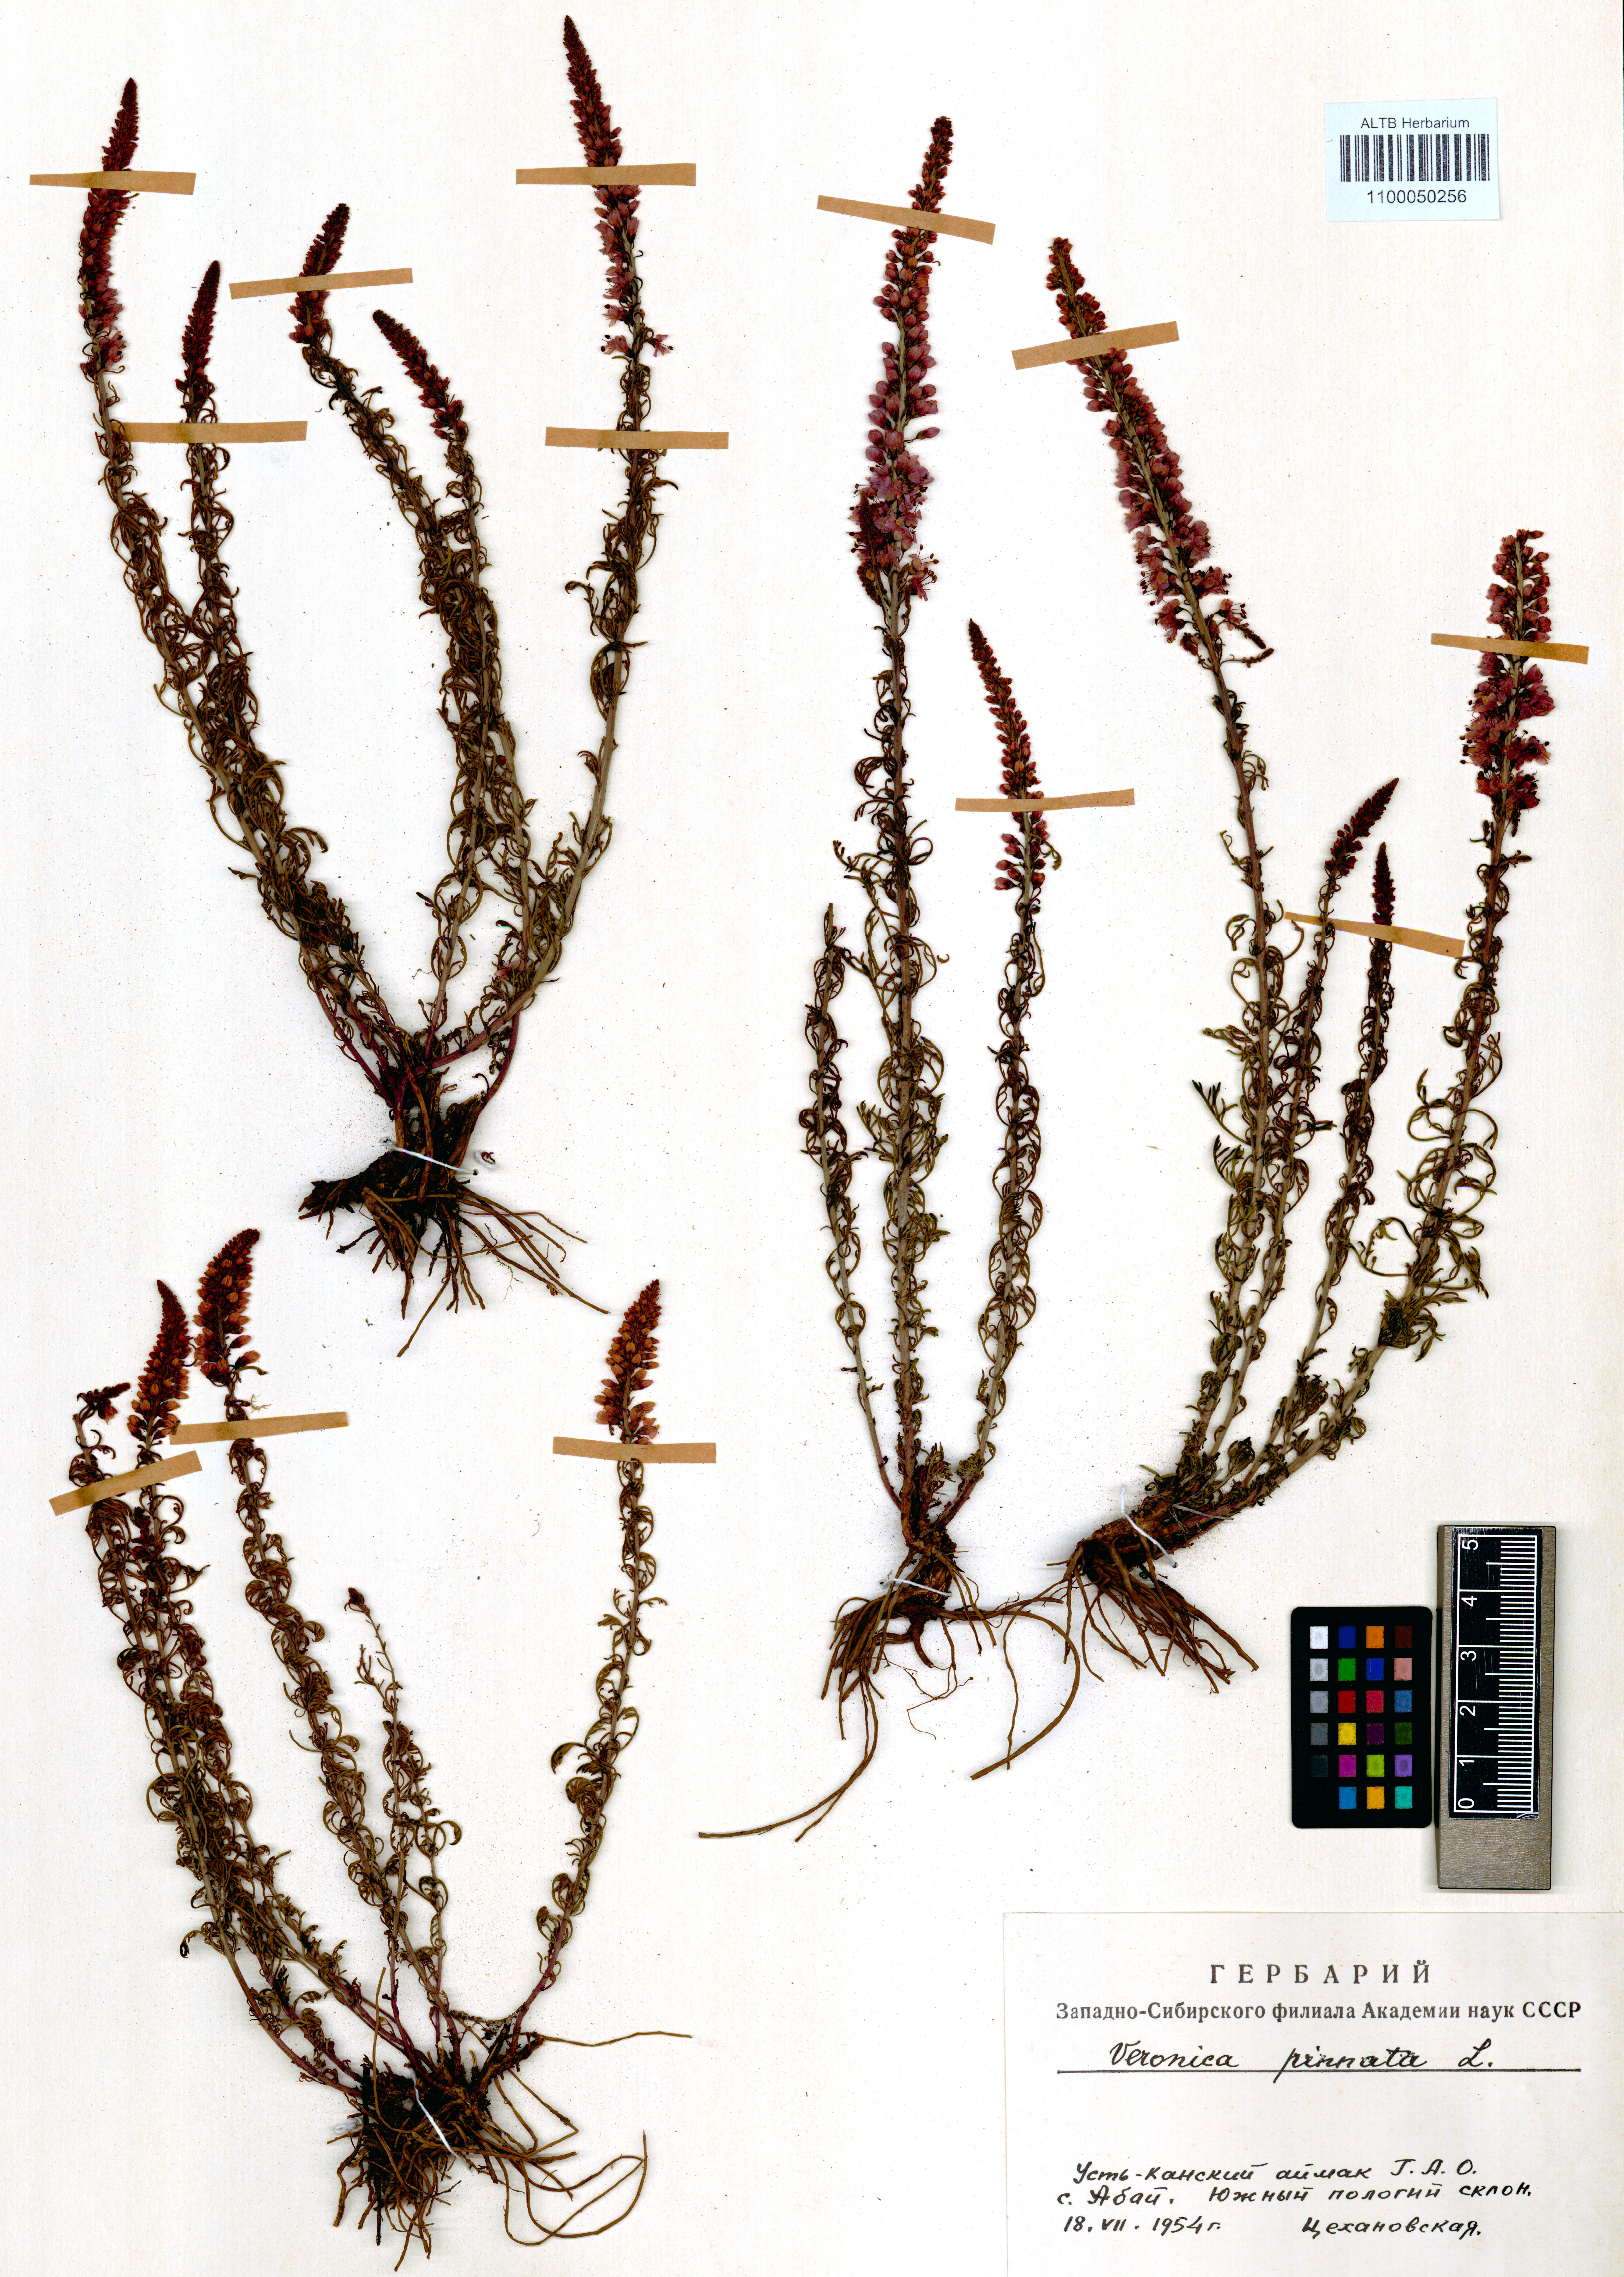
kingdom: Plantae
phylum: Tracheophyta
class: Magnoliopsida
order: Lamiales
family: Plantaginaceae
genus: Veronica
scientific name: Veronica pinnata
